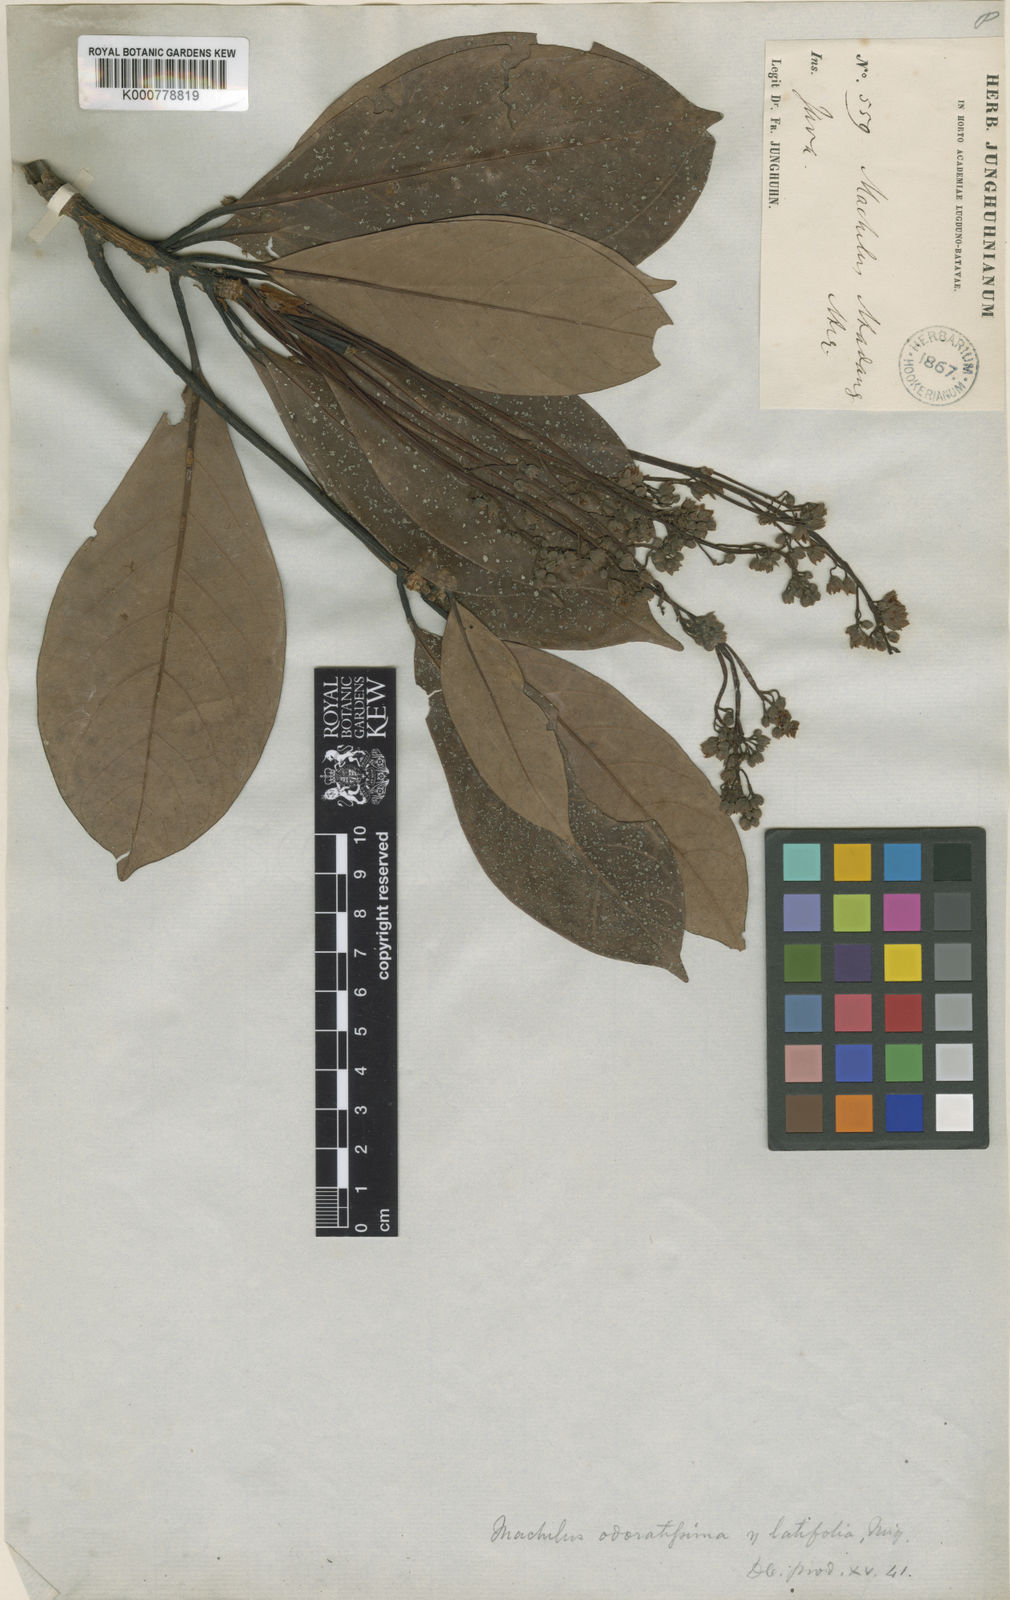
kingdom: Plantae
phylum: Tracheophyta
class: Magnoliopsida
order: Laurales
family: Lauraceae
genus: Persea
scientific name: Persea
